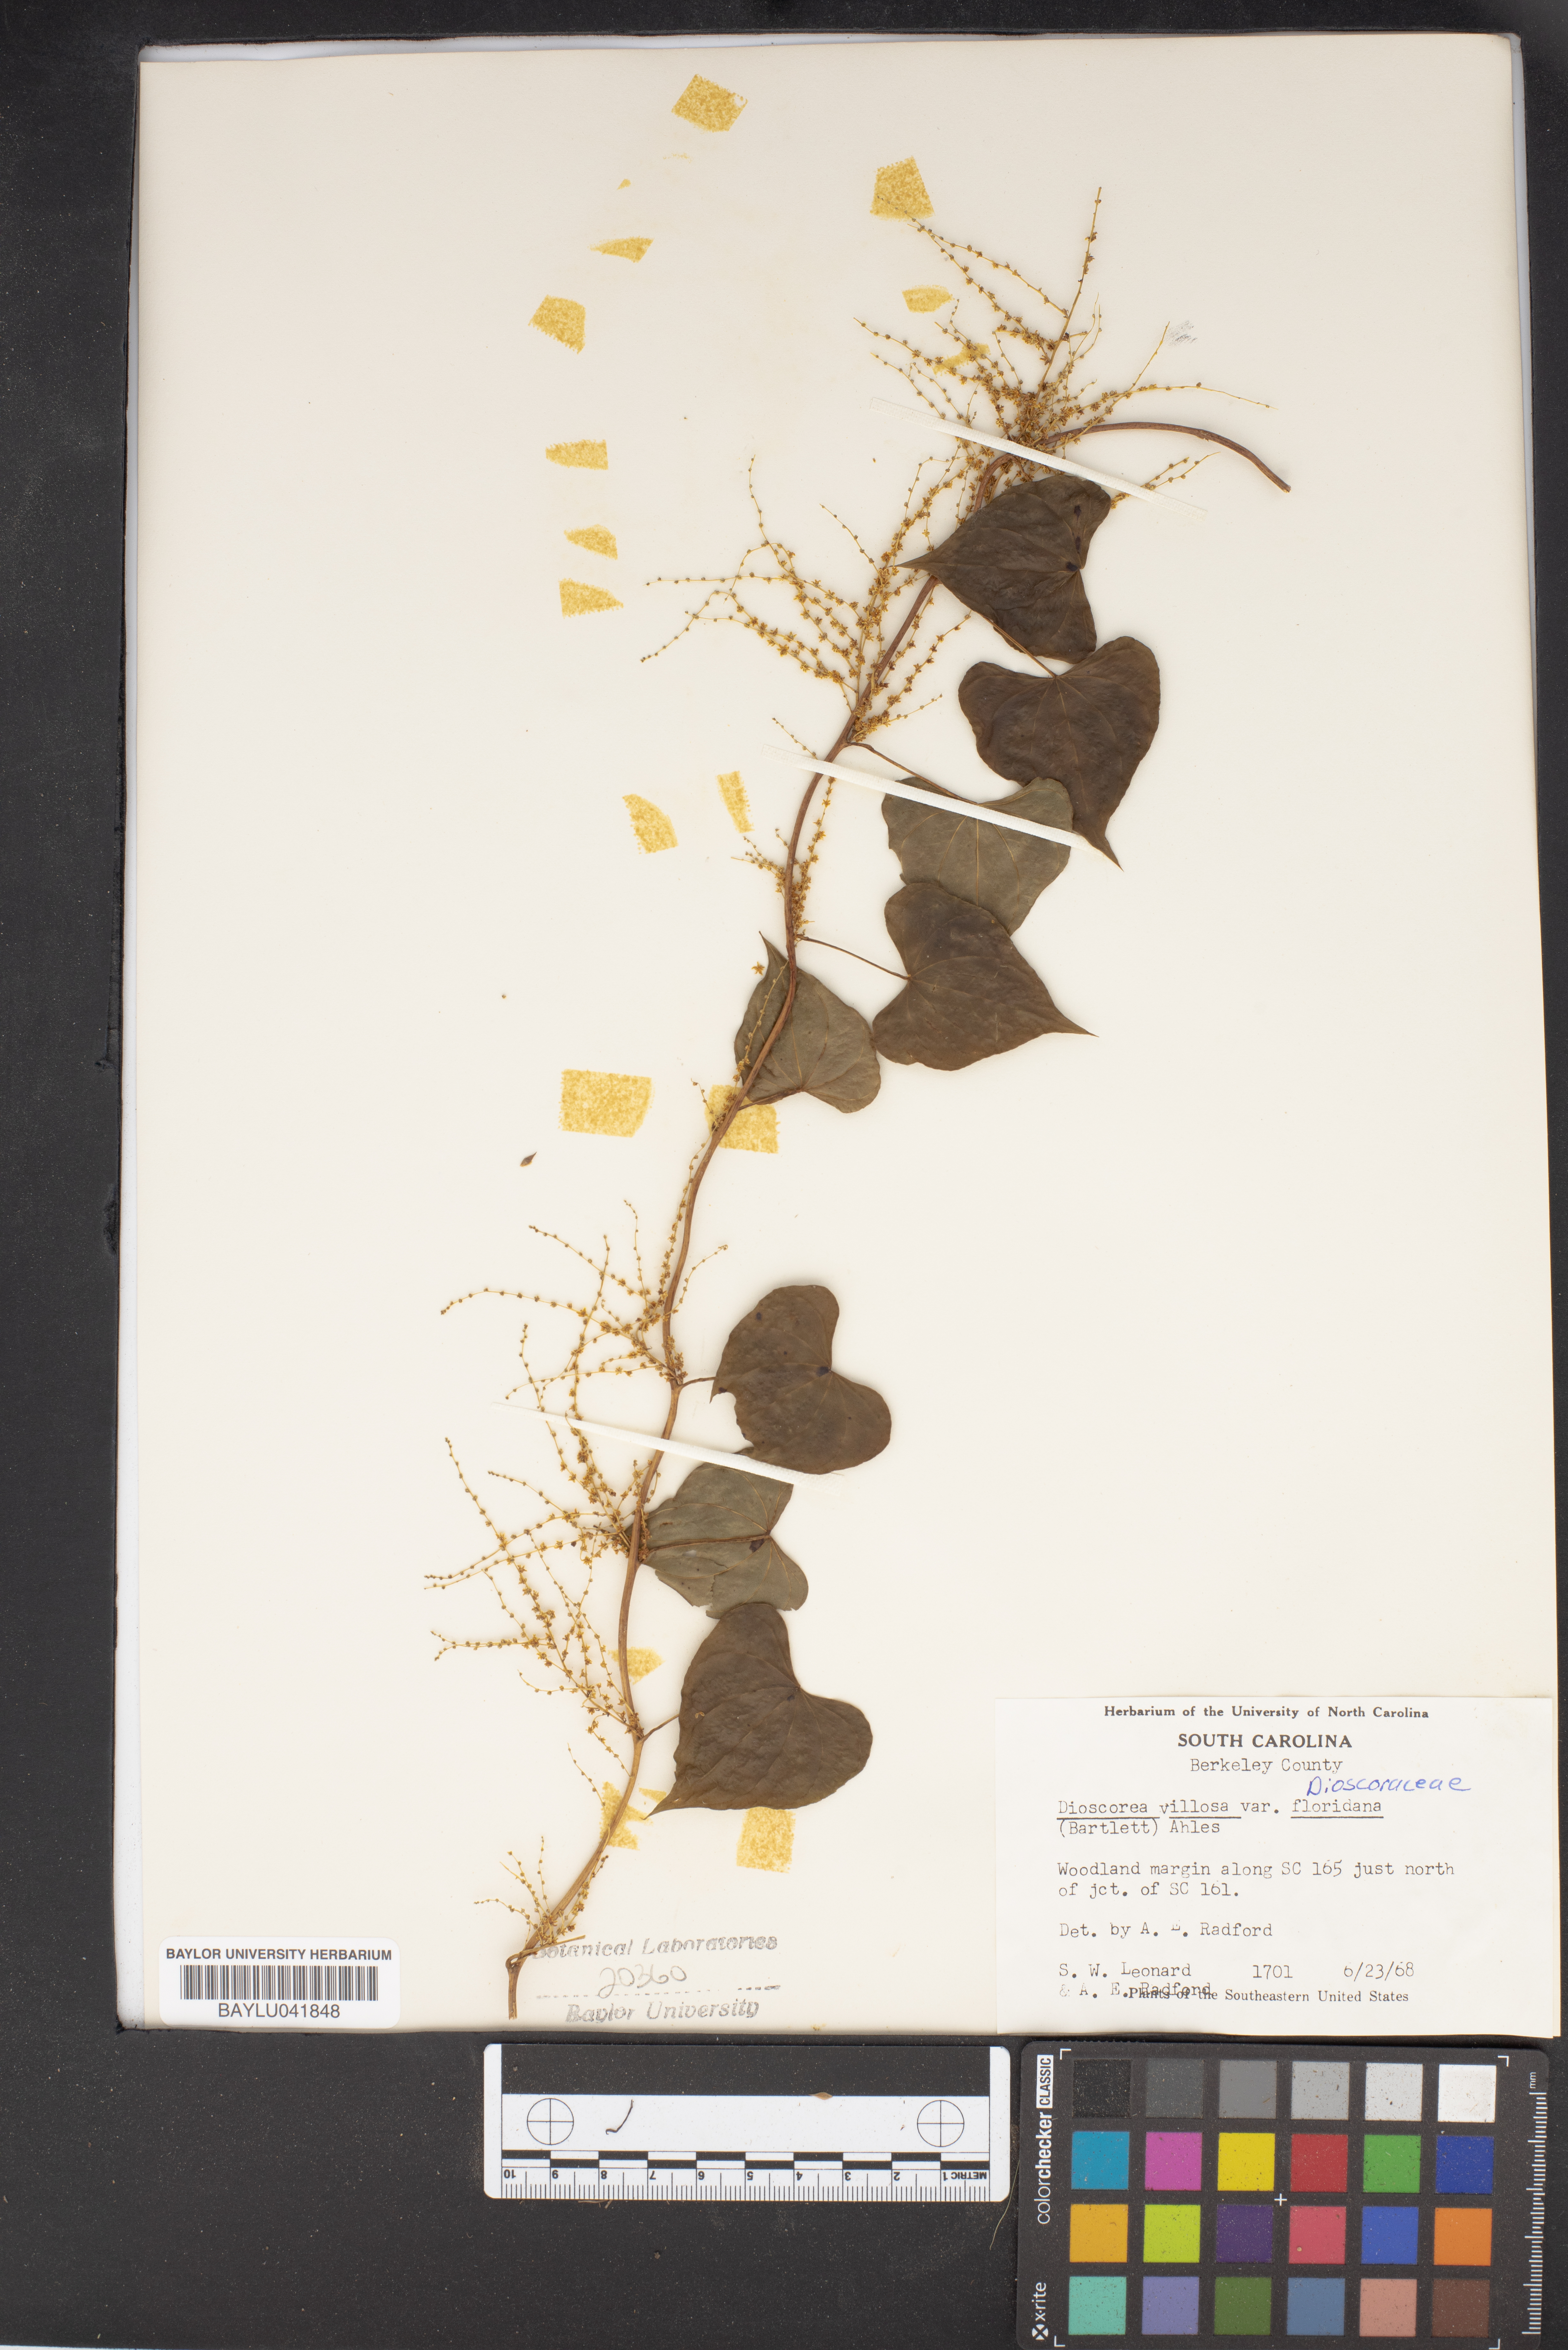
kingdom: Plantae
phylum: Tracheophyta
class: Liliopsida
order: Dioscoreales
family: Dioscoreaceae
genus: Dioscorea
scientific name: Dioscorea floridana
